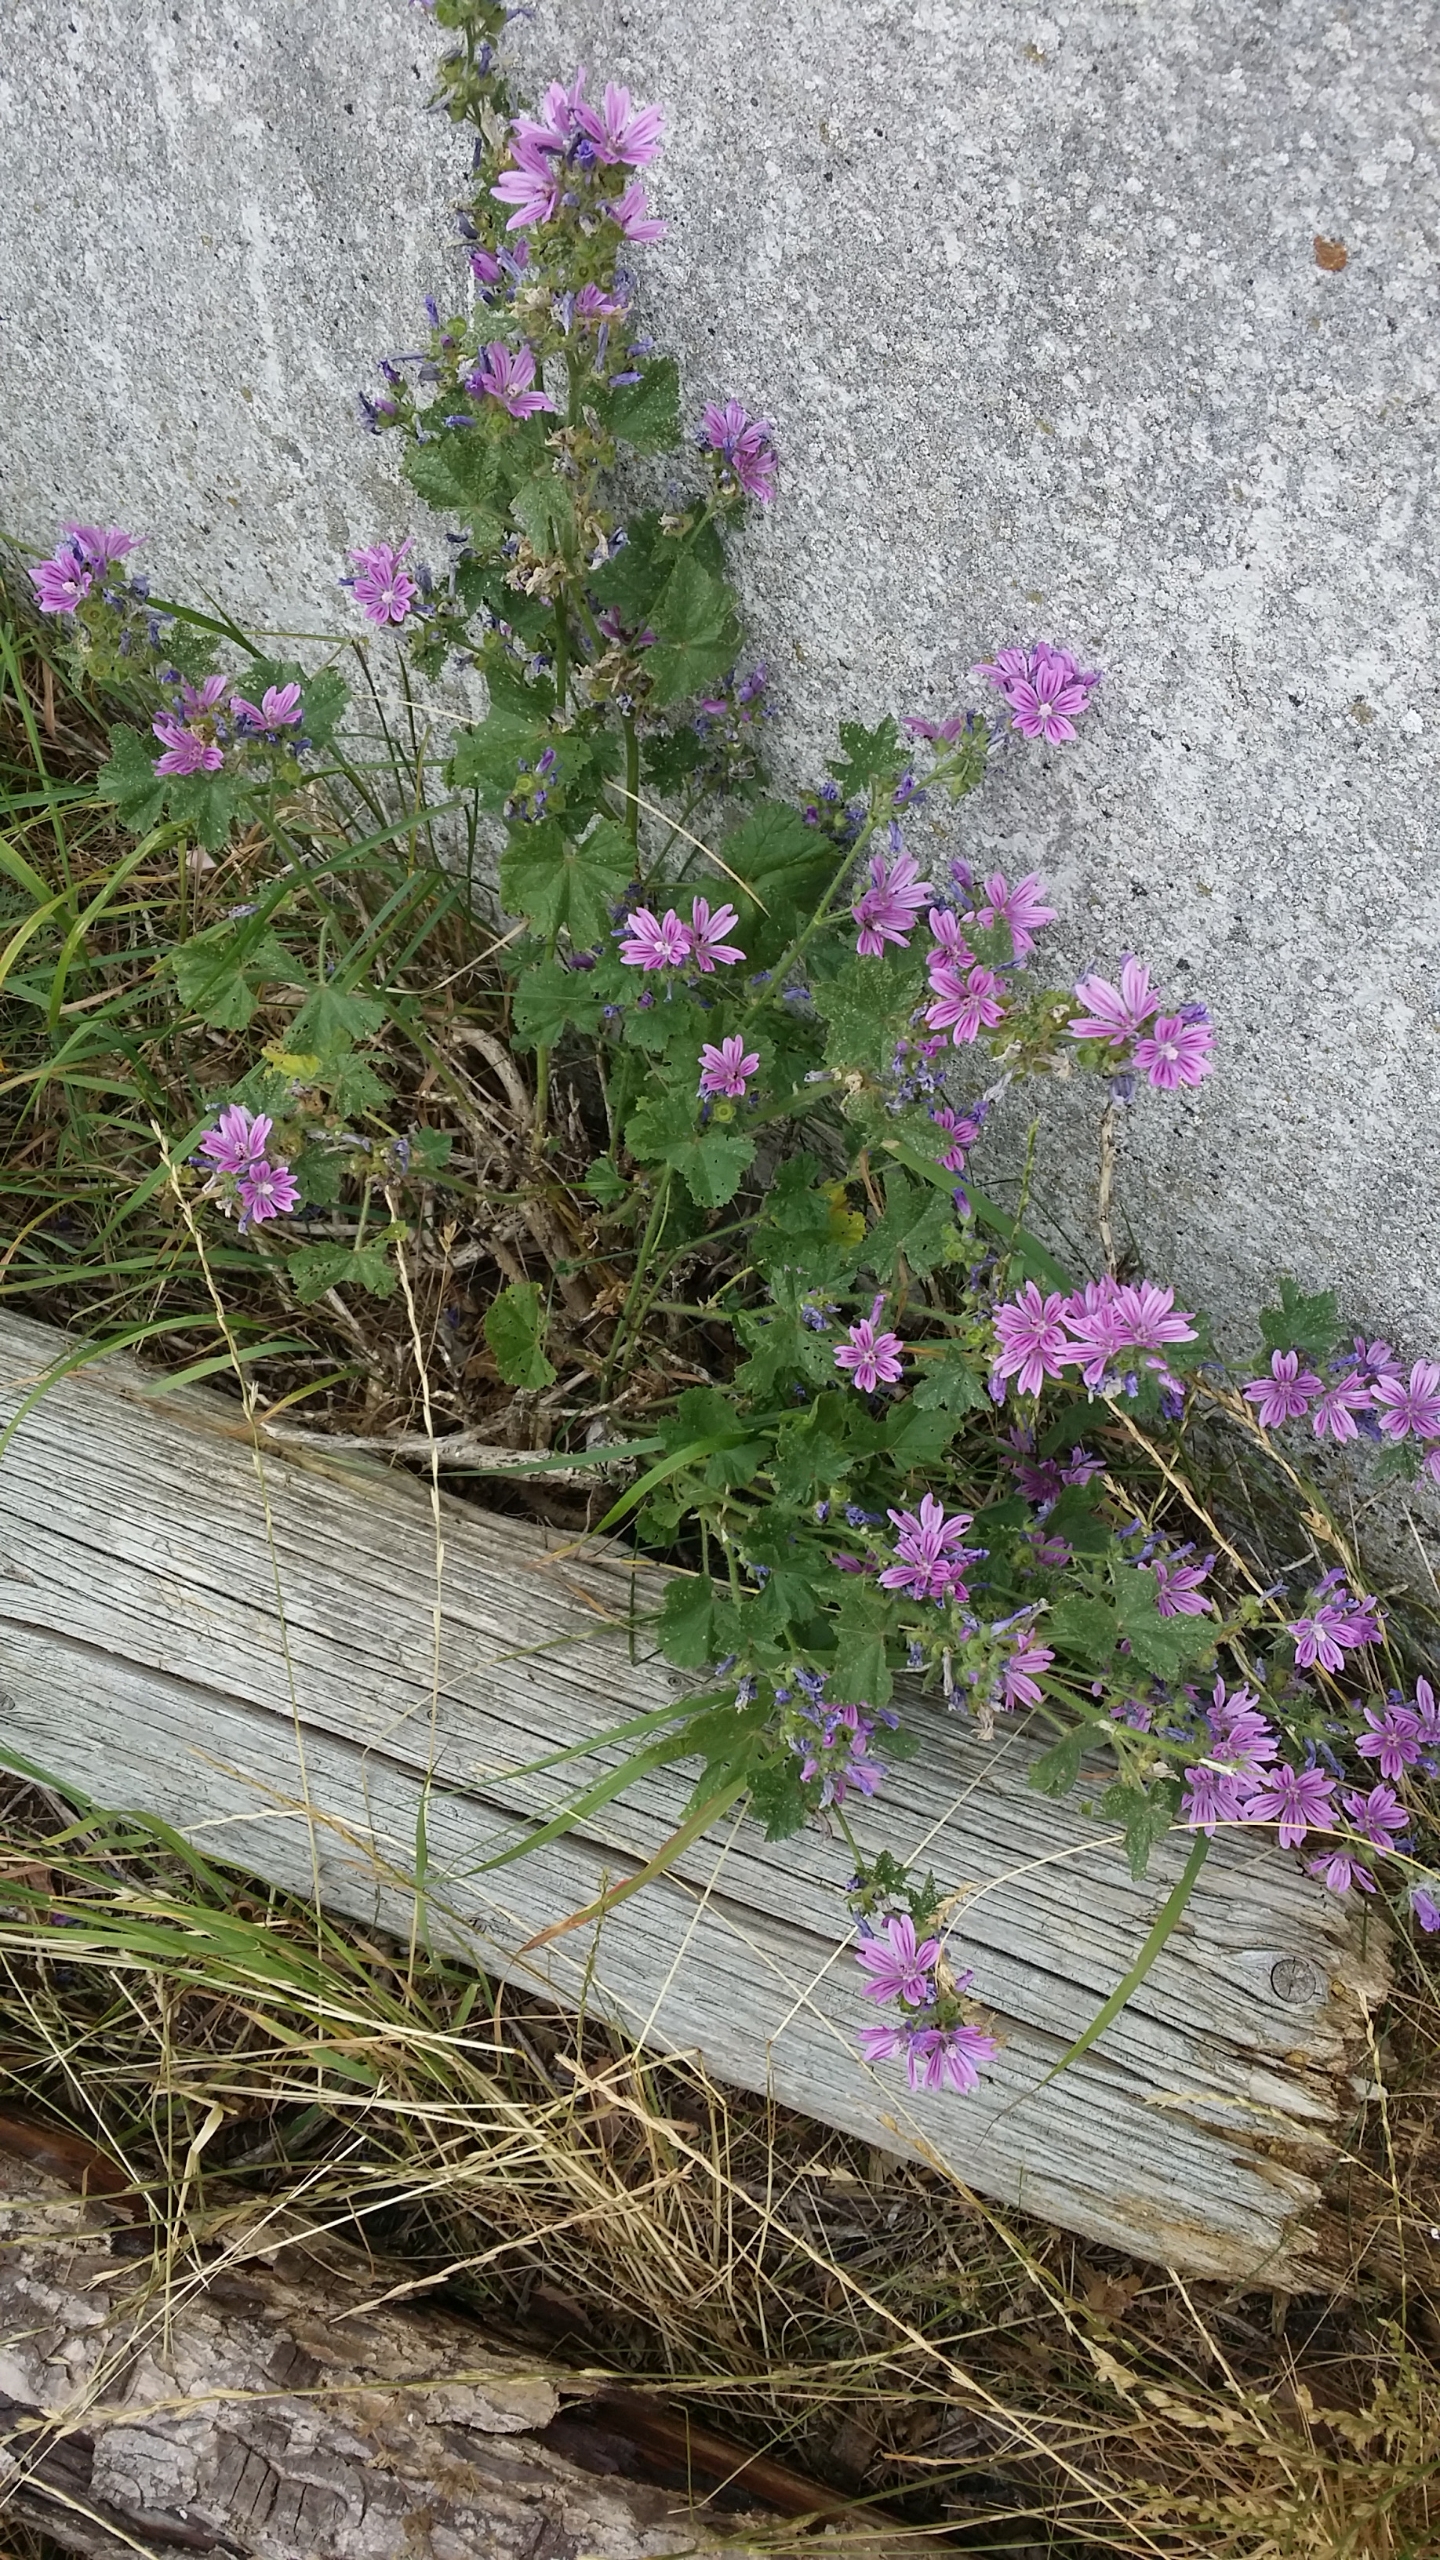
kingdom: Plantae
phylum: Tracheophyta
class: Magnoliopsida
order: Malvales
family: Malvaceae
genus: Malva
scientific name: Malva sylvestris
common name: Almindelig katost
